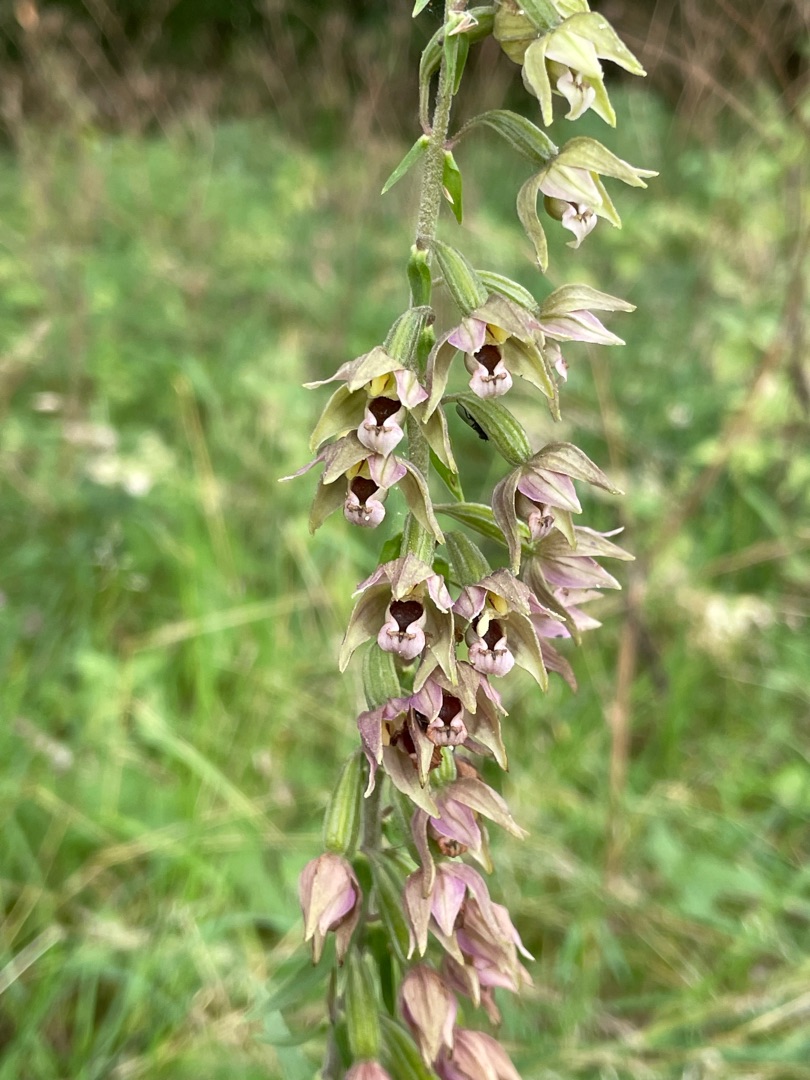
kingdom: Plantae
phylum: Tracheophyta
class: Liliopsida
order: Asparagales
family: Orchidaceae
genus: Epipactis
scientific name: Epipactis helleborine
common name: Skov-hullæbe (underart)
